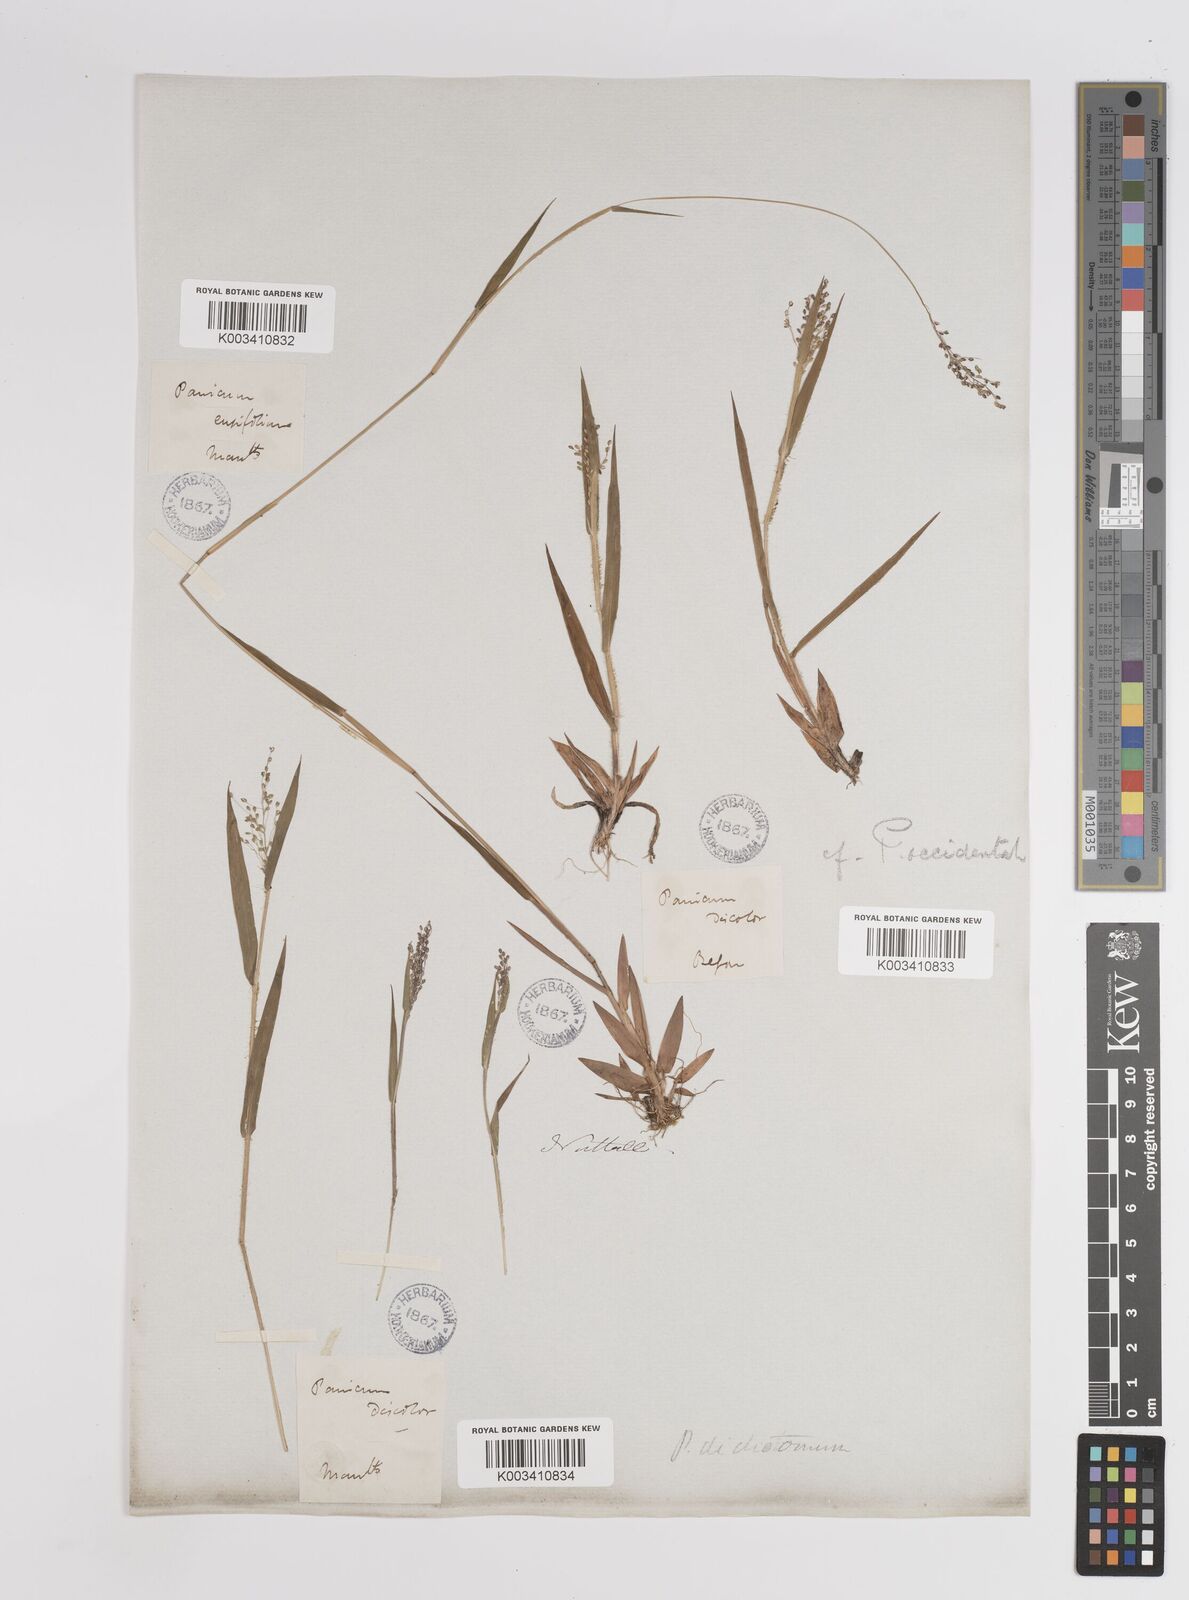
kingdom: Plantae
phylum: Tracheophyta
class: Liliopsida
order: Poales
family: Poaceae
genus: Dichanthelium
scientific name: Dichanthelium implicatum
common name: Slender-stemmed panicgrass
